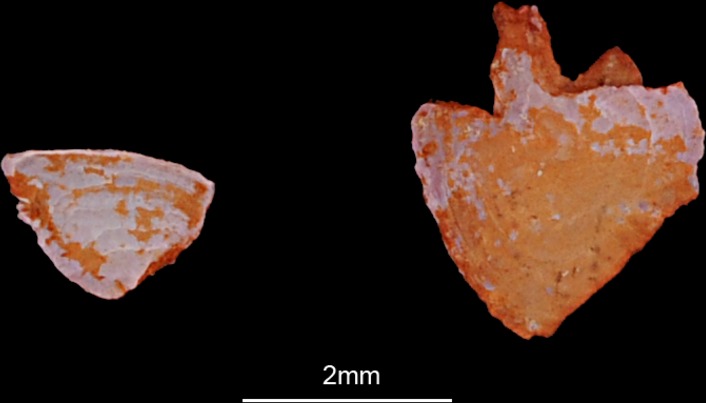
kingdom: Animalia
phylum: Chordata
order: Cypriniformes
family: Cyprinidae
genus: Barbus
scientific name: Barbus barbus
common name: Barbel
